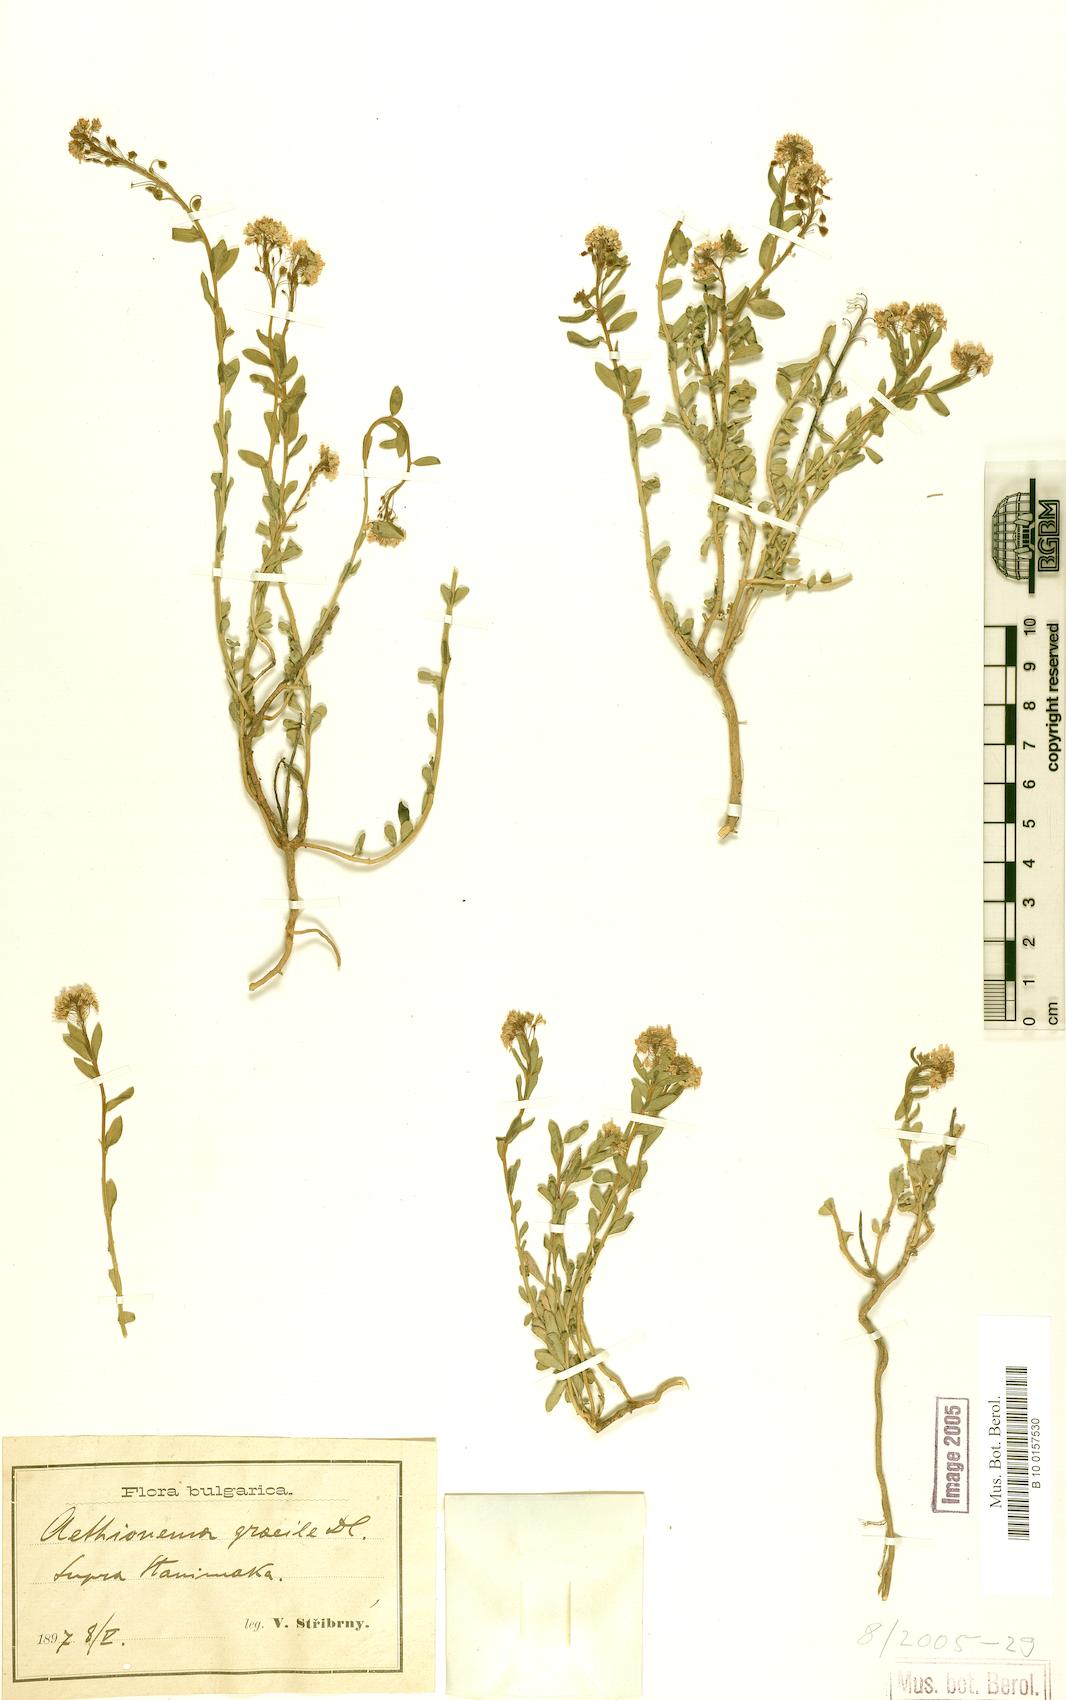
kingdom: Plantae
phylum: Tracheophyta
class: Magnoliopsida
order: Brassicales
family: Brassicaceae
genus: Aethionema
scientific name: Aethionema saxatile
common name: Burnt candytuft
